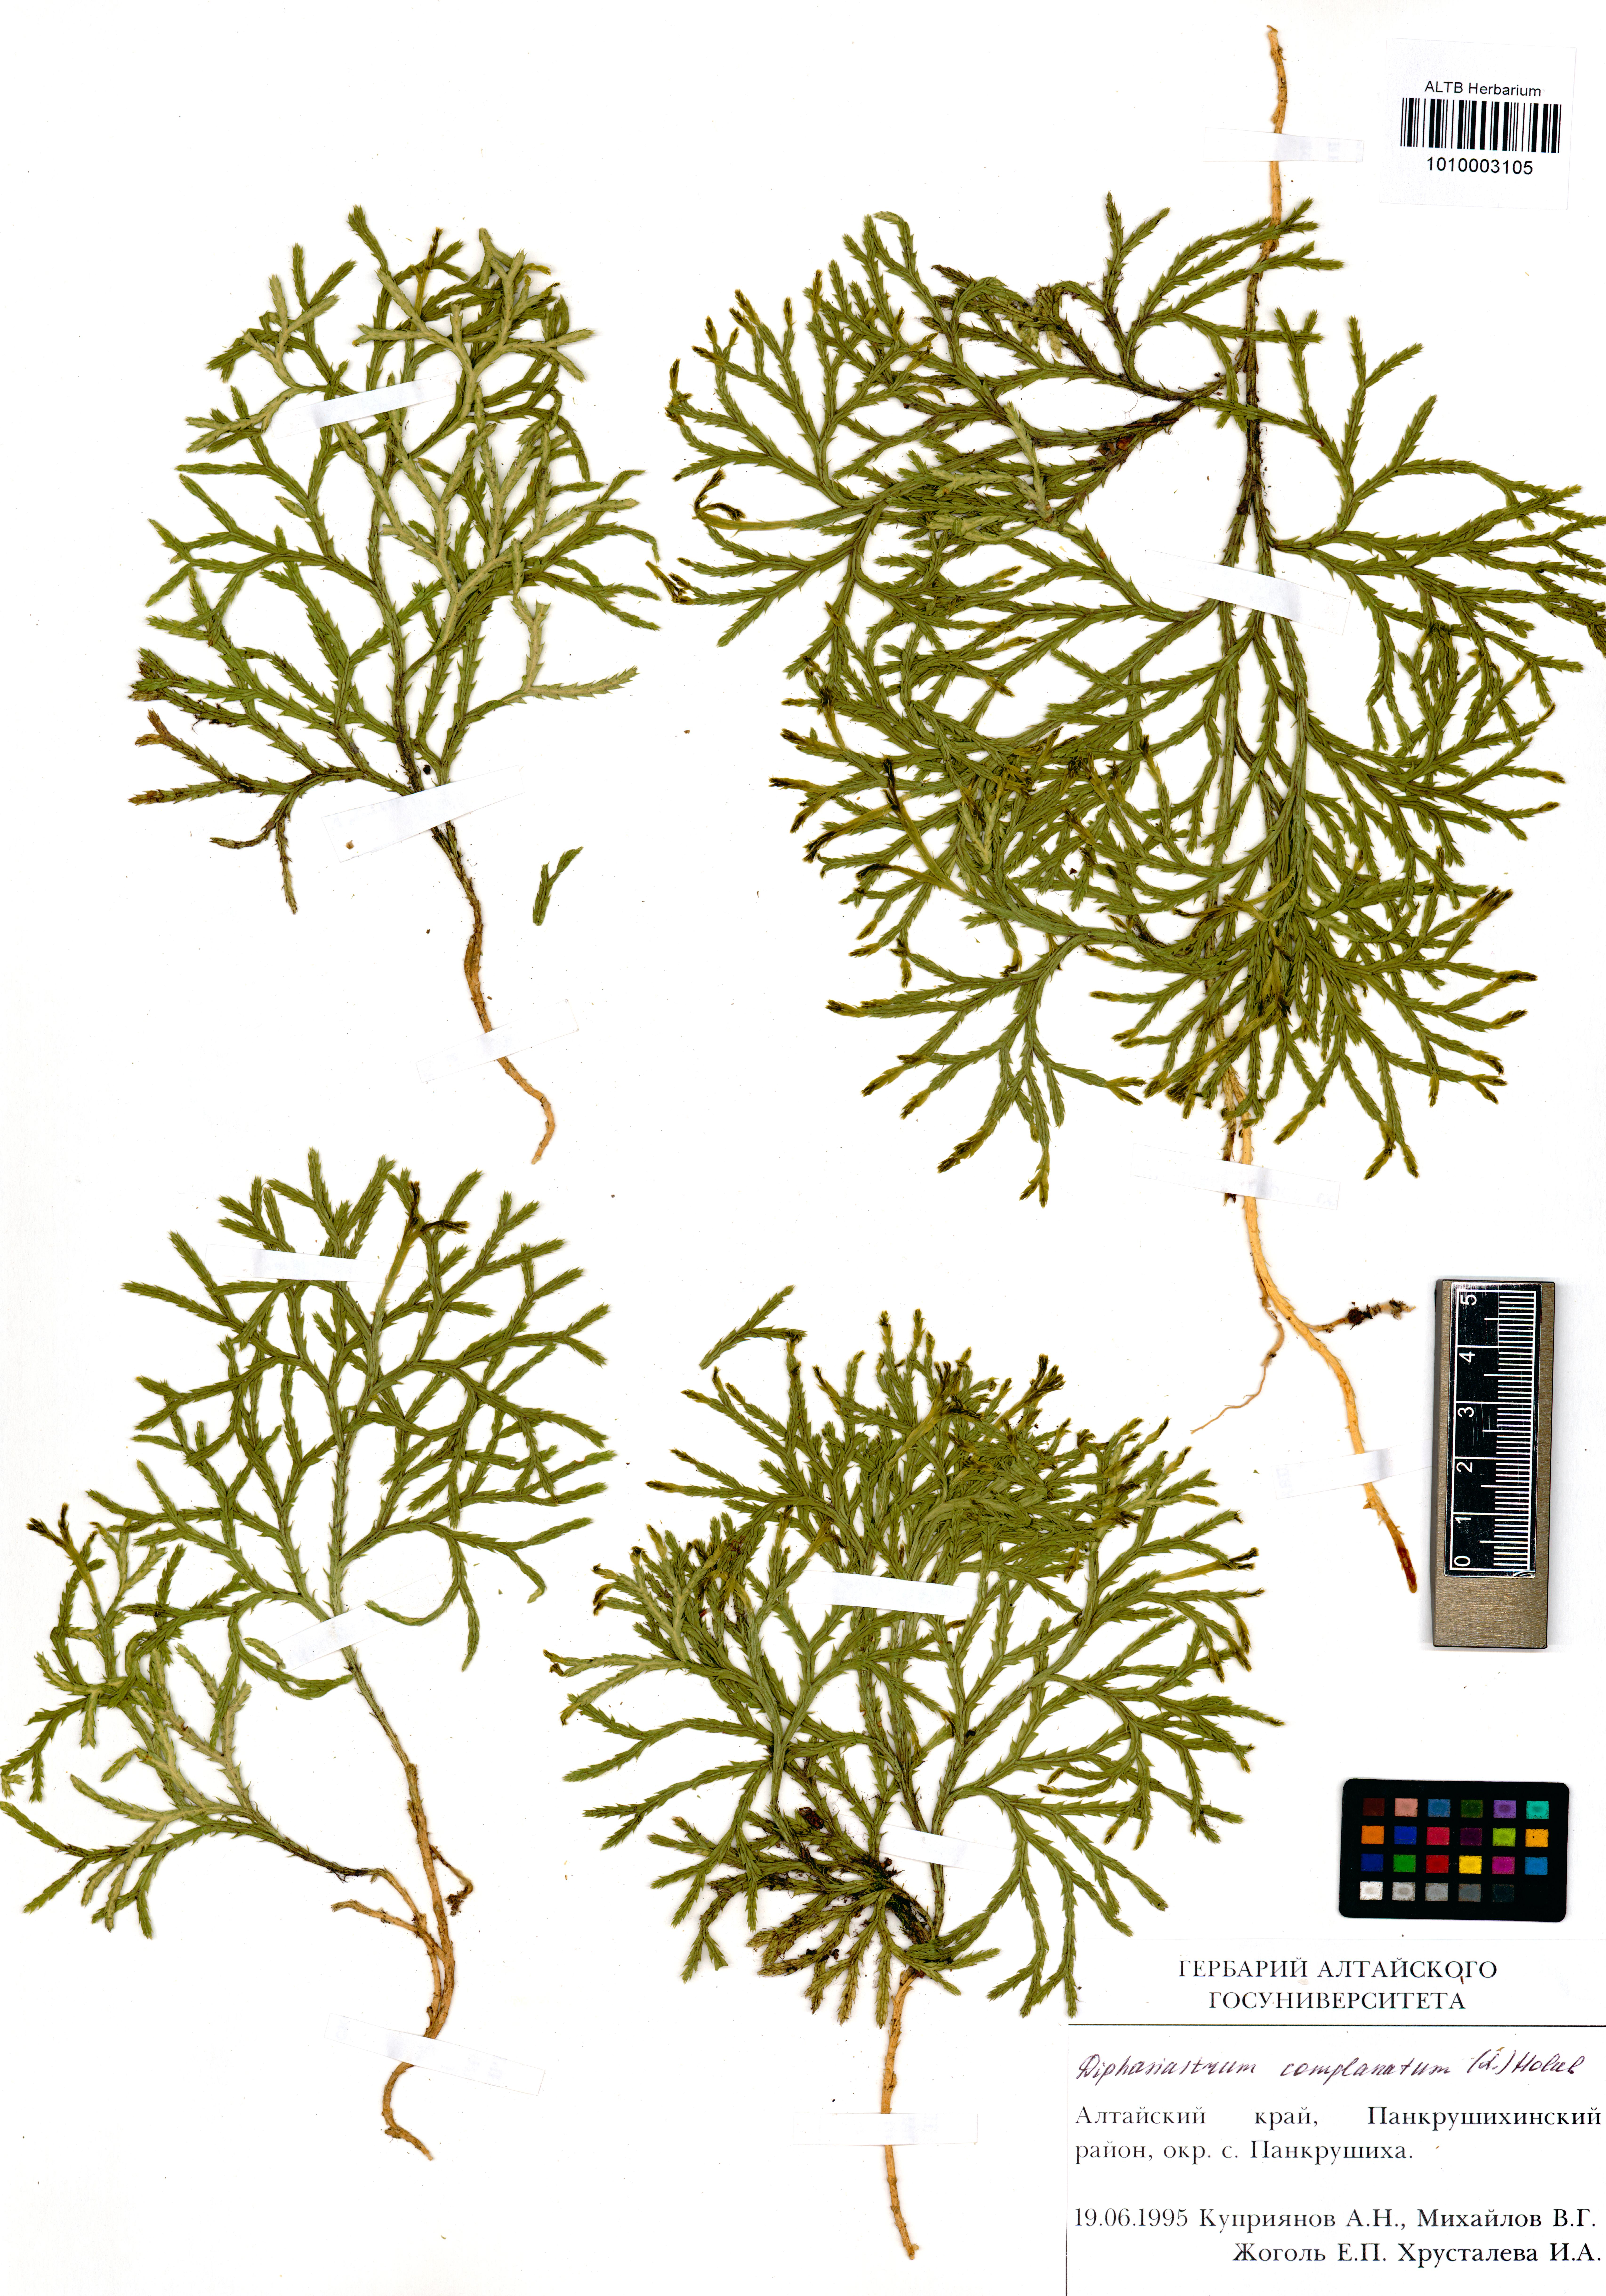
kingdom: Plantae
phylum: Tracheophyta
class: Lycopodiopsida
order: Lycopodiales
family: Lycopodiaceae
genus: Diphasiastrum
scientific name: Diphasiastrum complanatum
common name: Northern running-pine
